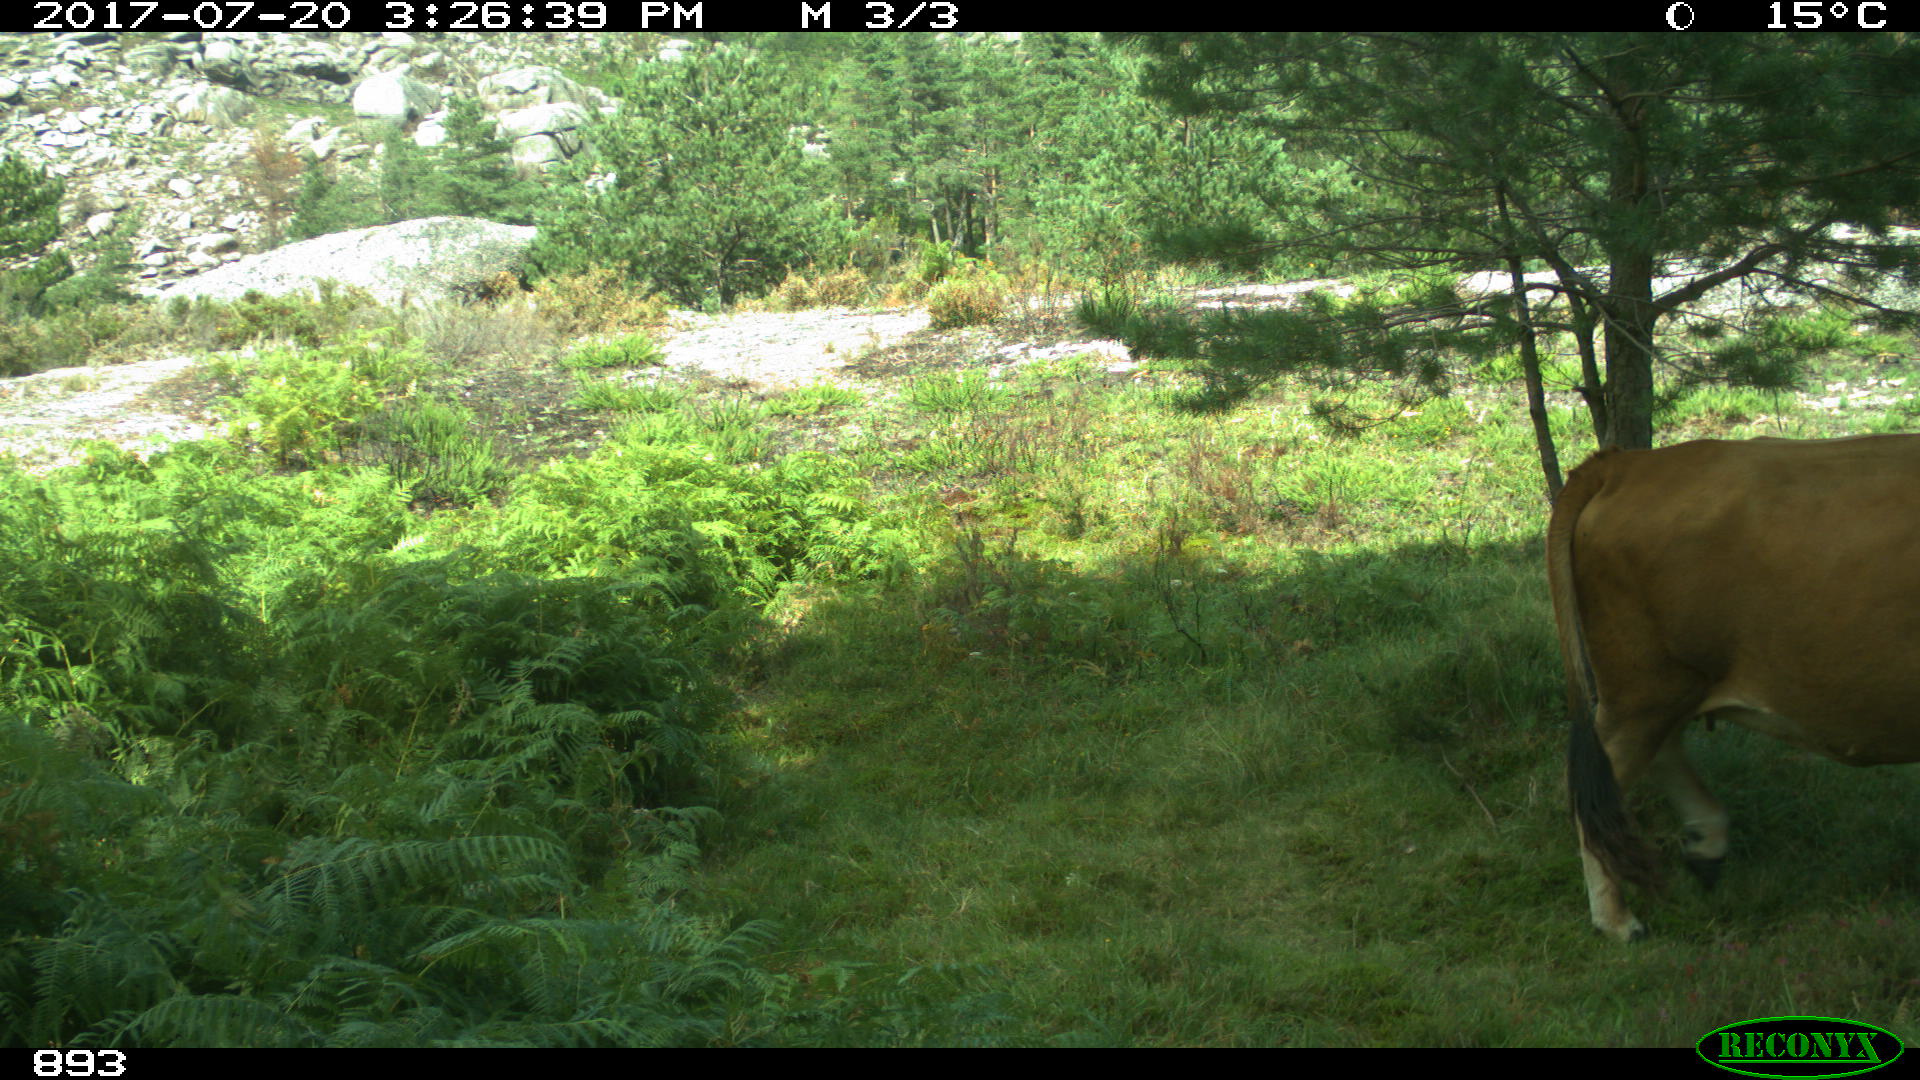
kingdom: Animalia
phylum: Chordata
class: Mammalia
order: Artiodactyla
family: Bovidae
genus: Bos
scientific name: Bos taurus
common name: Domesticated cattle
